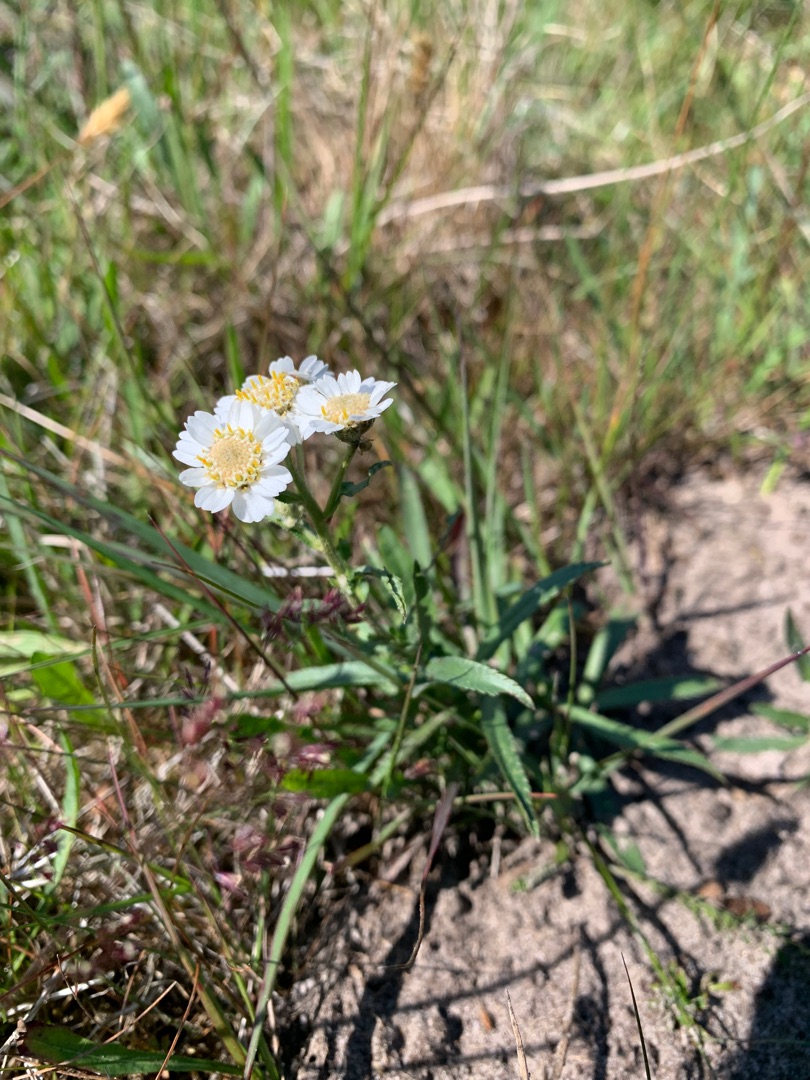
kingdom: Plantae
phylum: Tracheophyta
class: Magnoliopsida
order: Asterales
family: Asteraceae
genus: Achillea
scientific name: Achillea ptarmica
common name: Nyse-røllike
